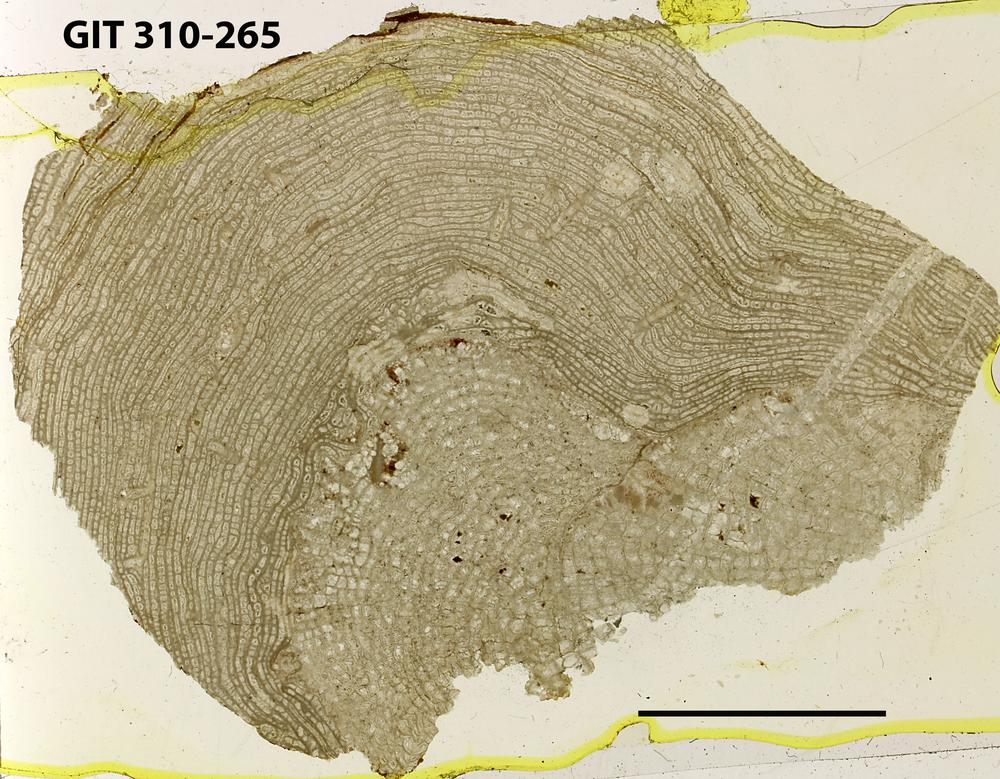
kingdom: Animalia
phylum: Porifera
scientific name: Porifera
